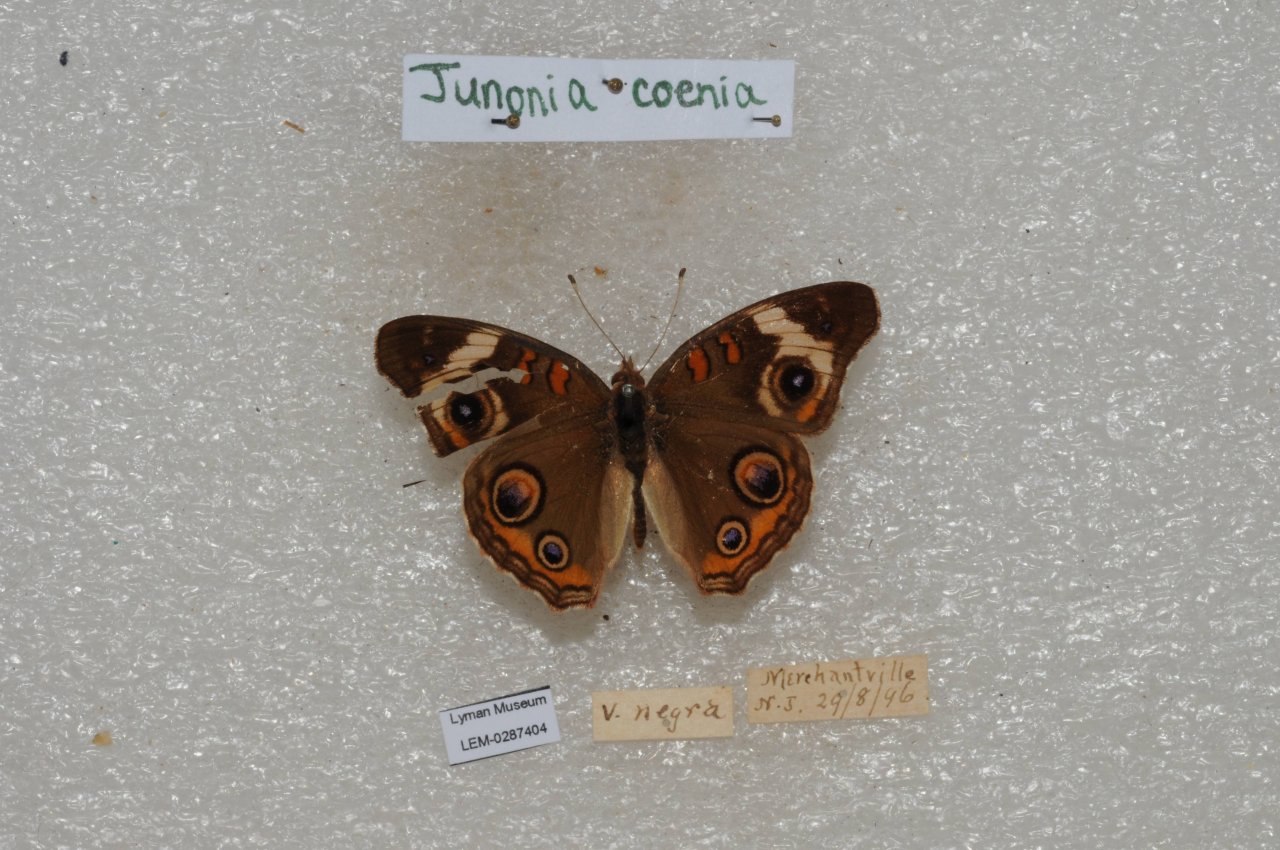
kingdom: Animalia
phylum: Arthropoda
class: Insecta
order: Lepidoptera
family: Nymphalidae
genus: Junonia
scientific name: Junonia coenia
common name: Common Buckeye
